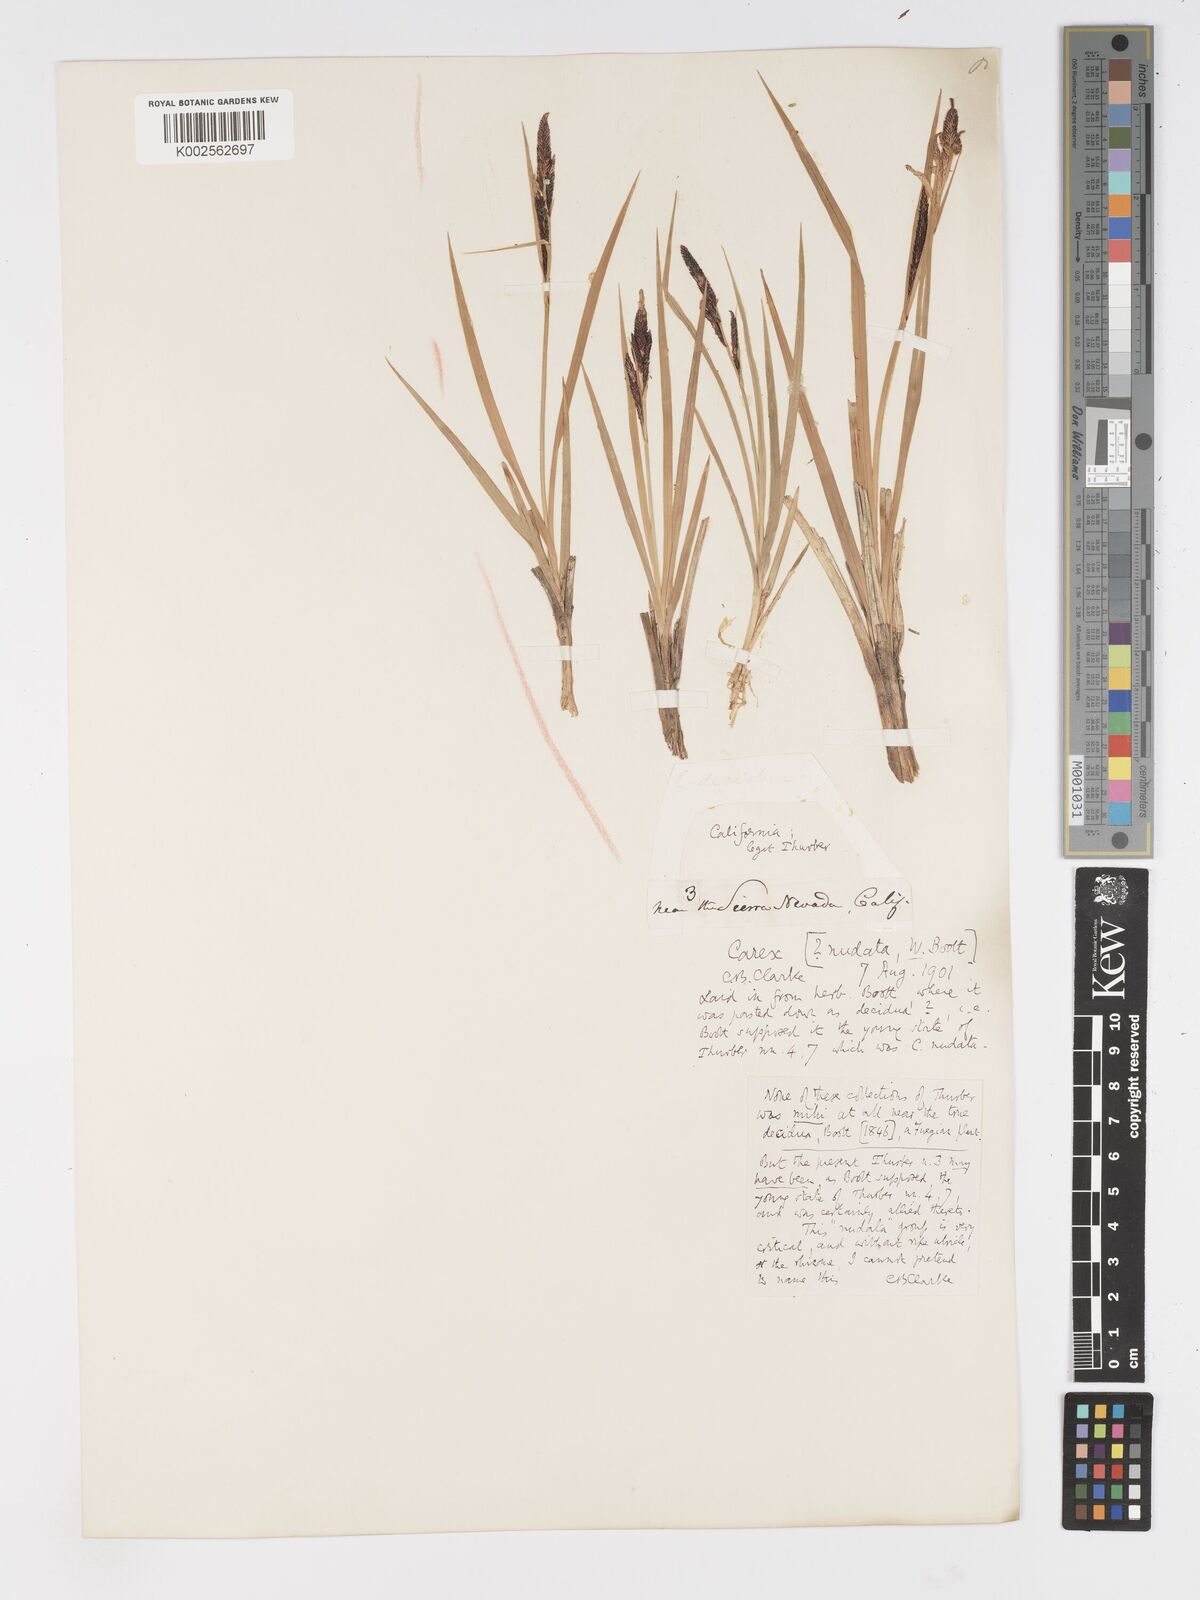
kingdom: Plantae
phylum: Tracheophyta
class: Liliopsida
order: Poales
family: Cyperaceae
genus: Carex
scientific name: Carex nudata
